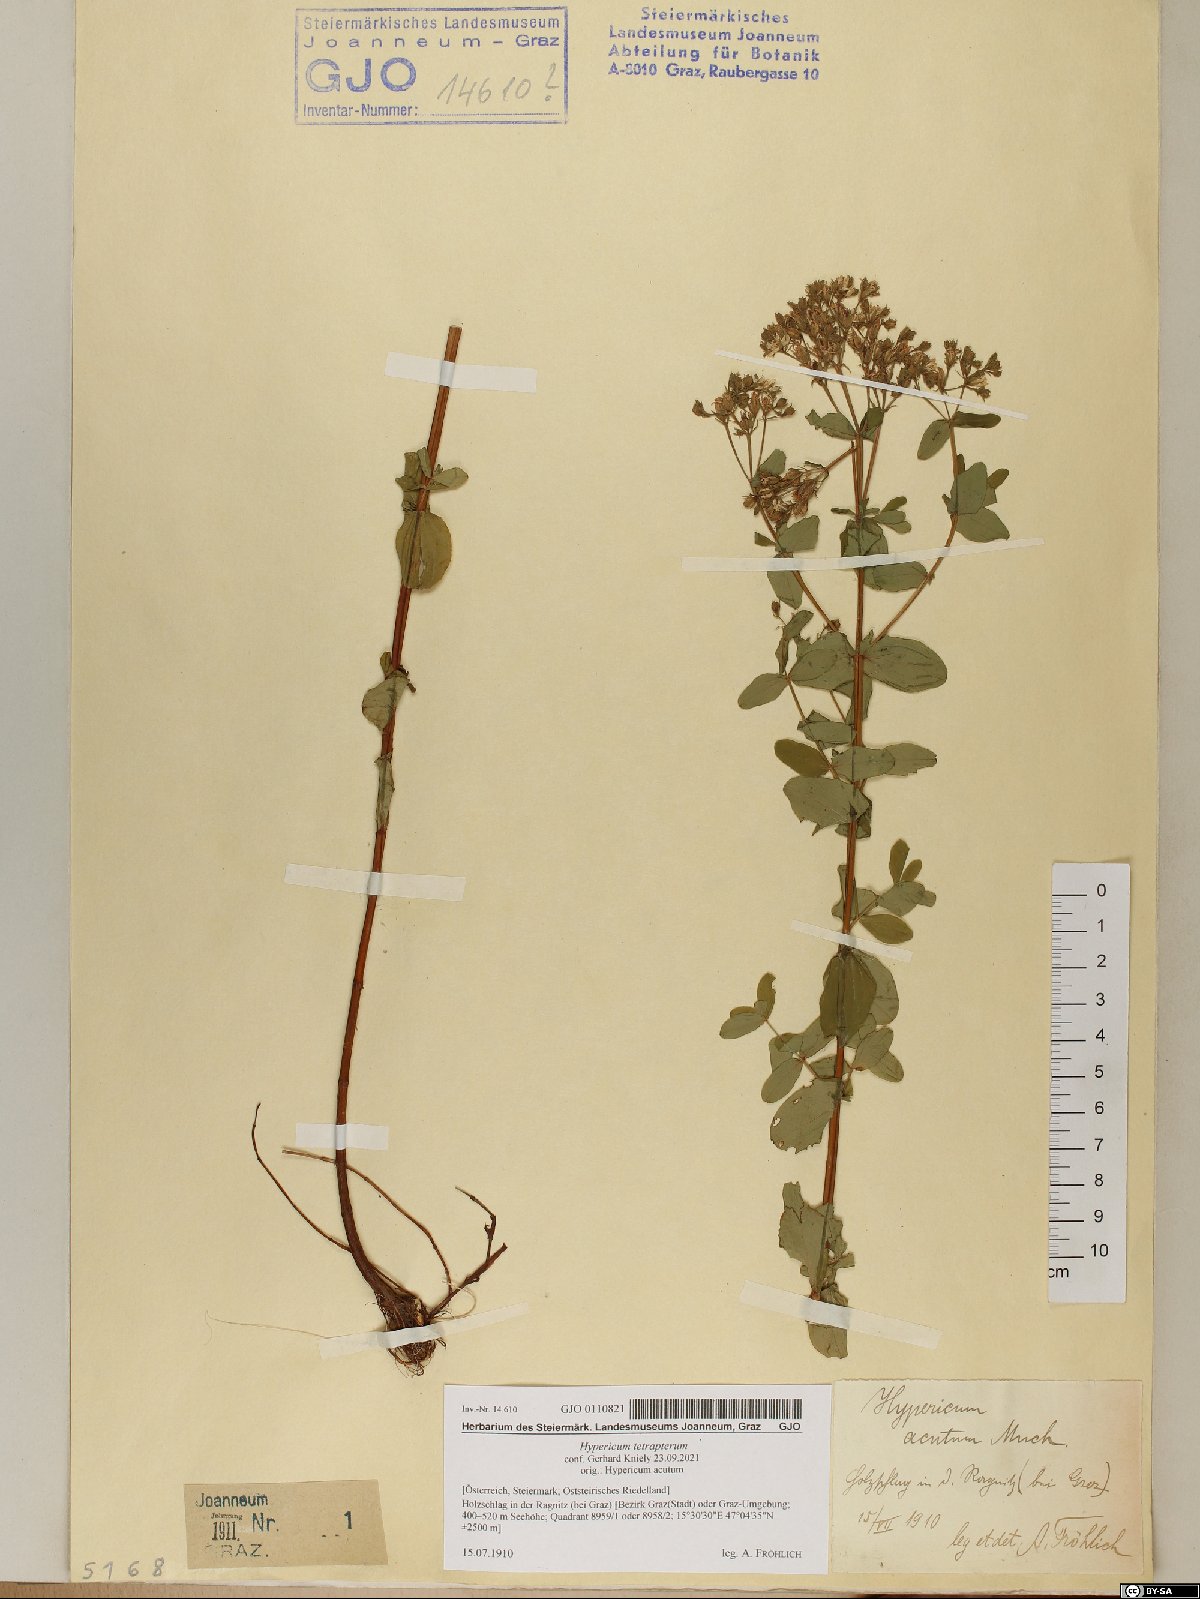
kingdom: Plantae
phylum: Tracheophyta
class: Magnoliopsida
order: Malpighiales
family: Hypericaceae
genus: Hypericum
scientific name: Hypericum tetrapterum
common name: Square-stalked st. john's-wort
